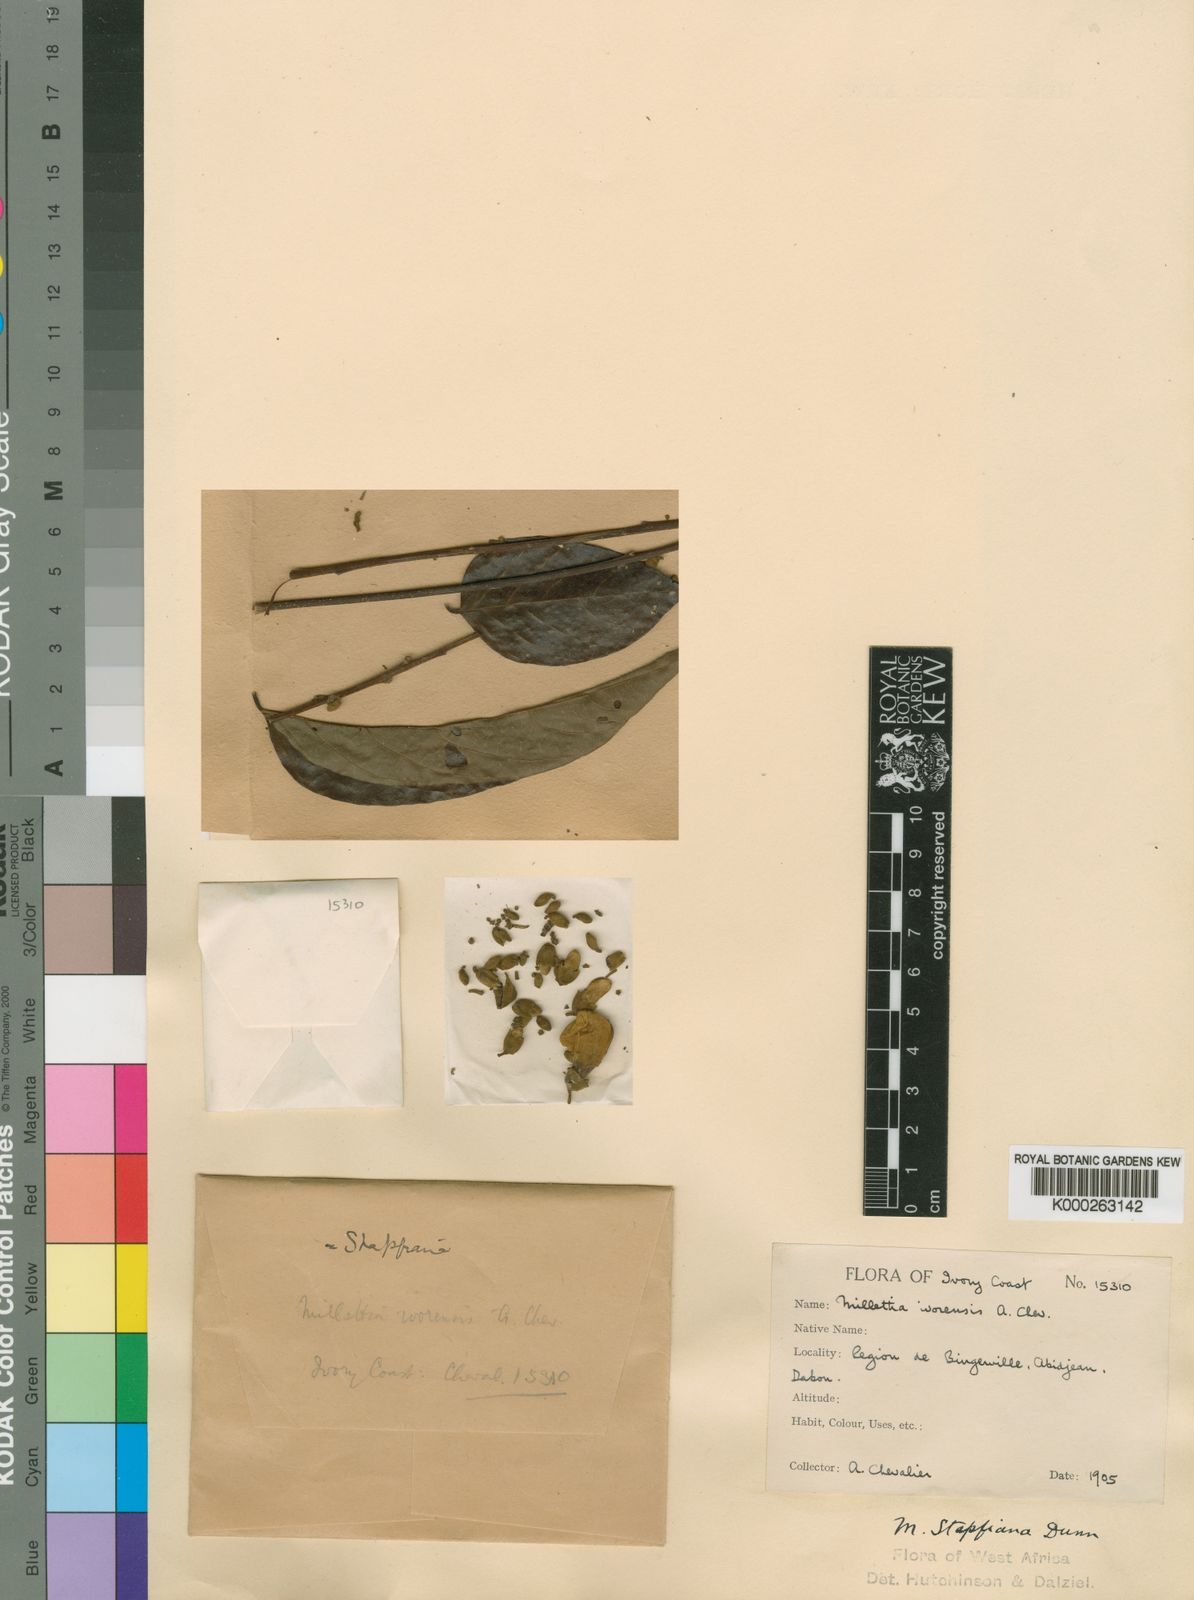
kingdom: Plantae
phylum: Tracheophyta
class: Magnoliopsida
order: Fabales
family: Fabaceae
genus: Millettia
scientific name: Millettia zechiana
